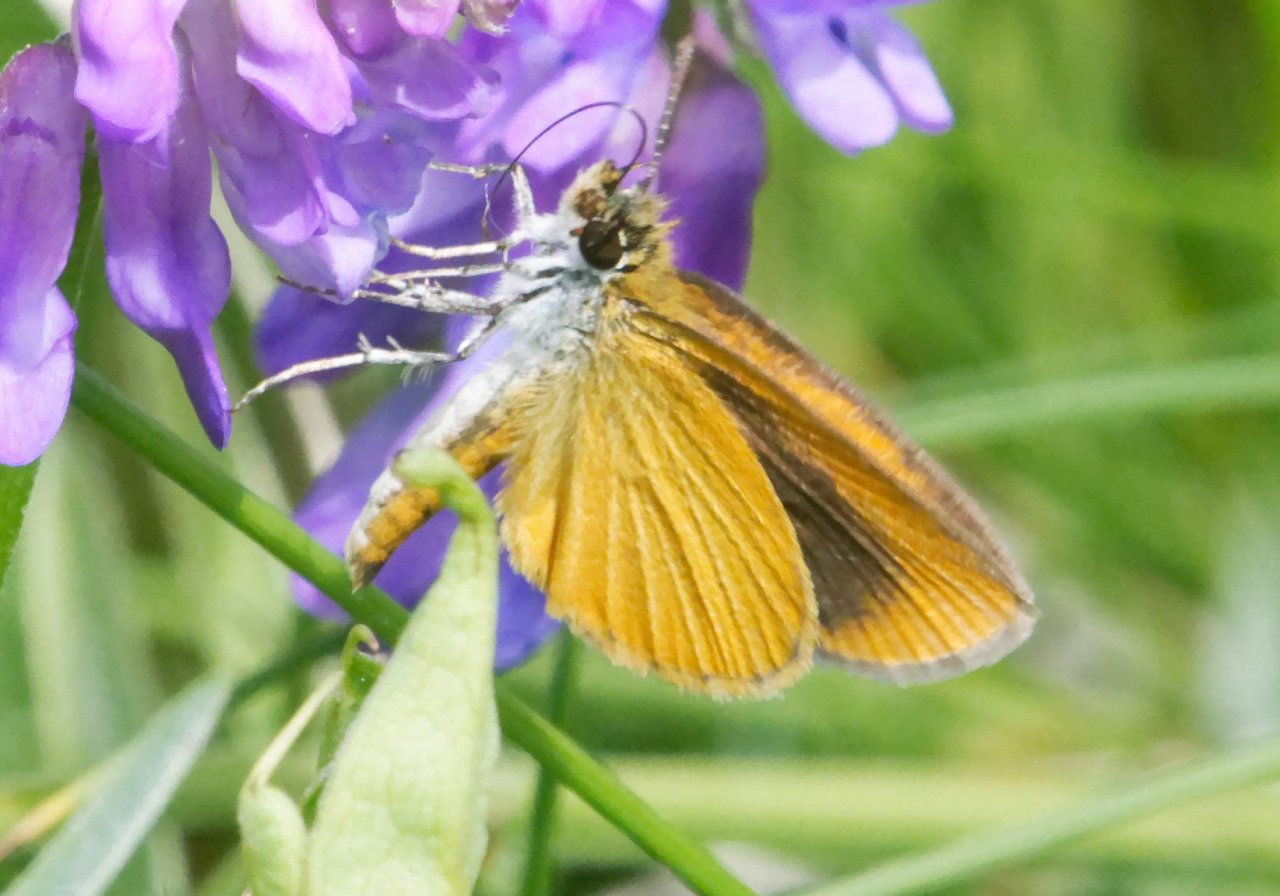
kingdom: Animalia
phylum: Arthropoda
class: Insecta
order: Lepidoptera
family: Hesperiidae
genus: Ancyloxypha
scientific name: Ancyloxypha numitor
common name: Least Skipper
